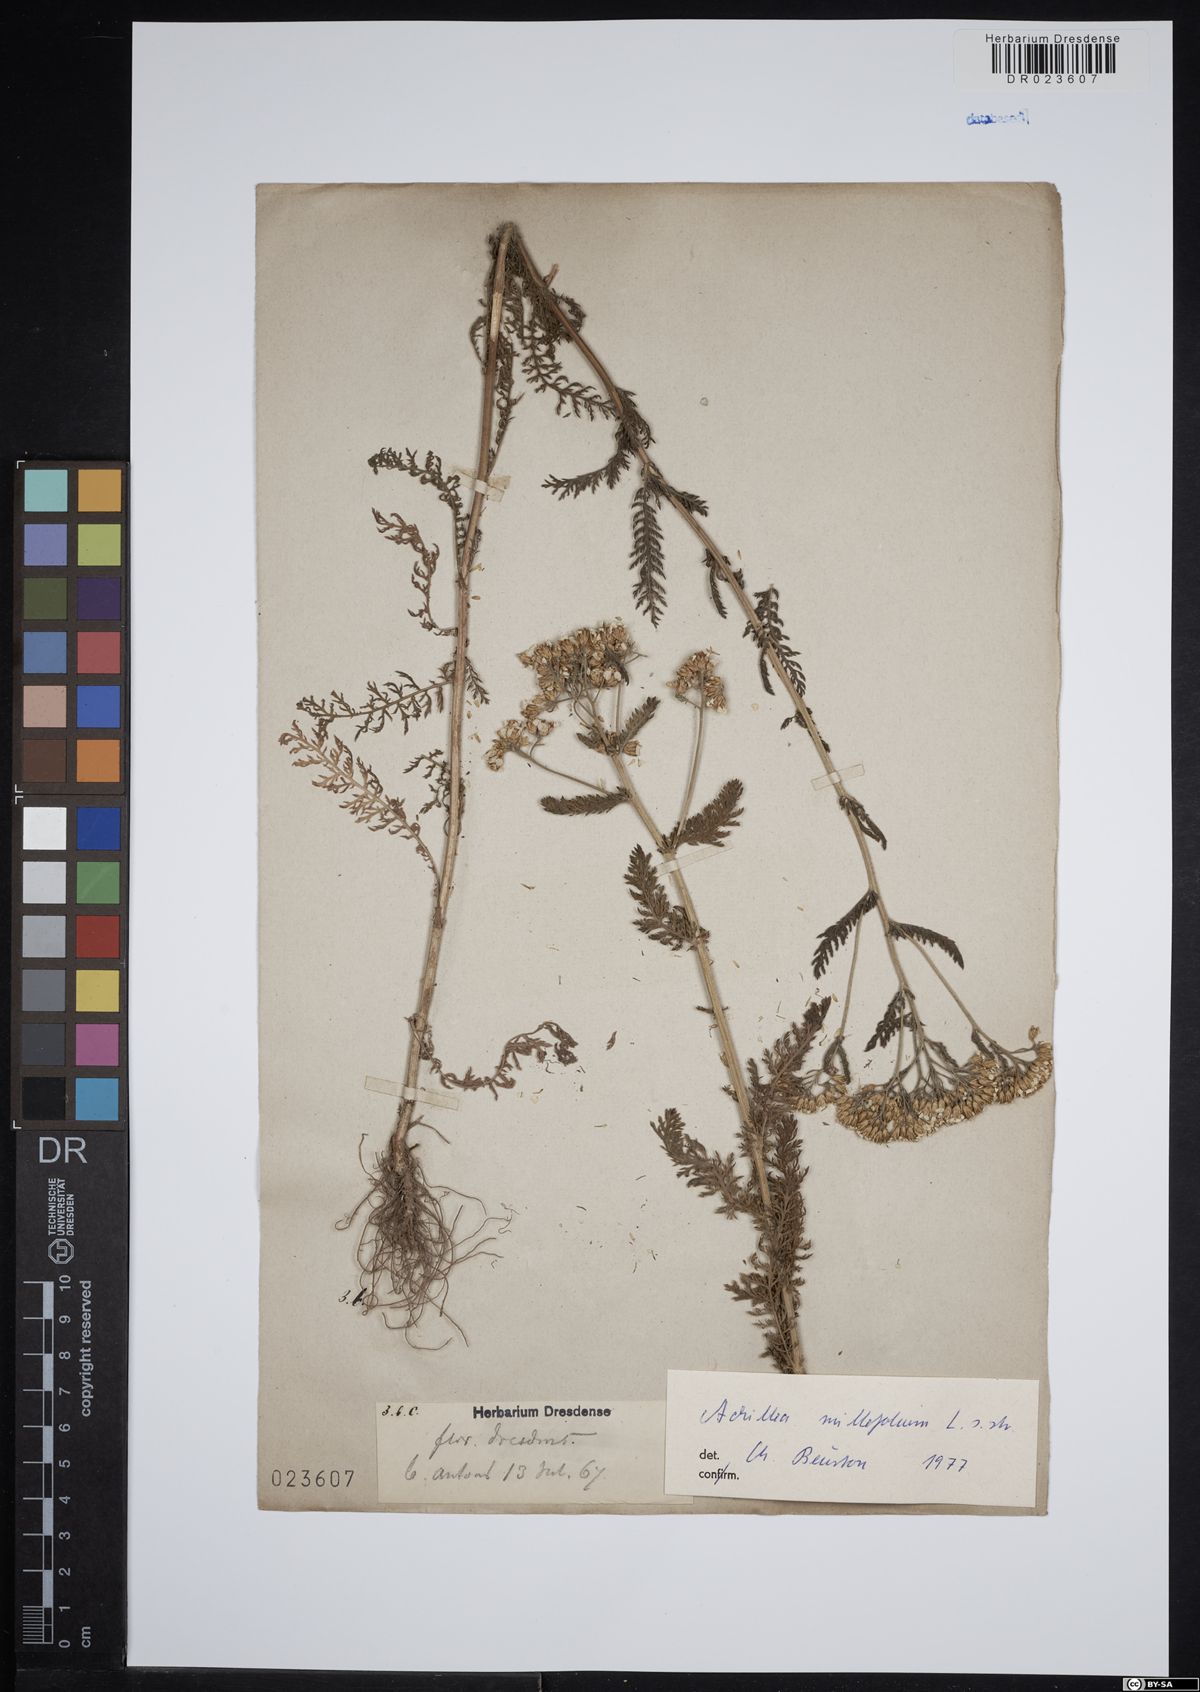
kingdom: Plantae
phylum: Tracheophyta
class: Magnoliopsida
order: Asterales
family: Asteraceae
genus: Achillea
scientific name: Achillea millefolium
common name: Yarrow
